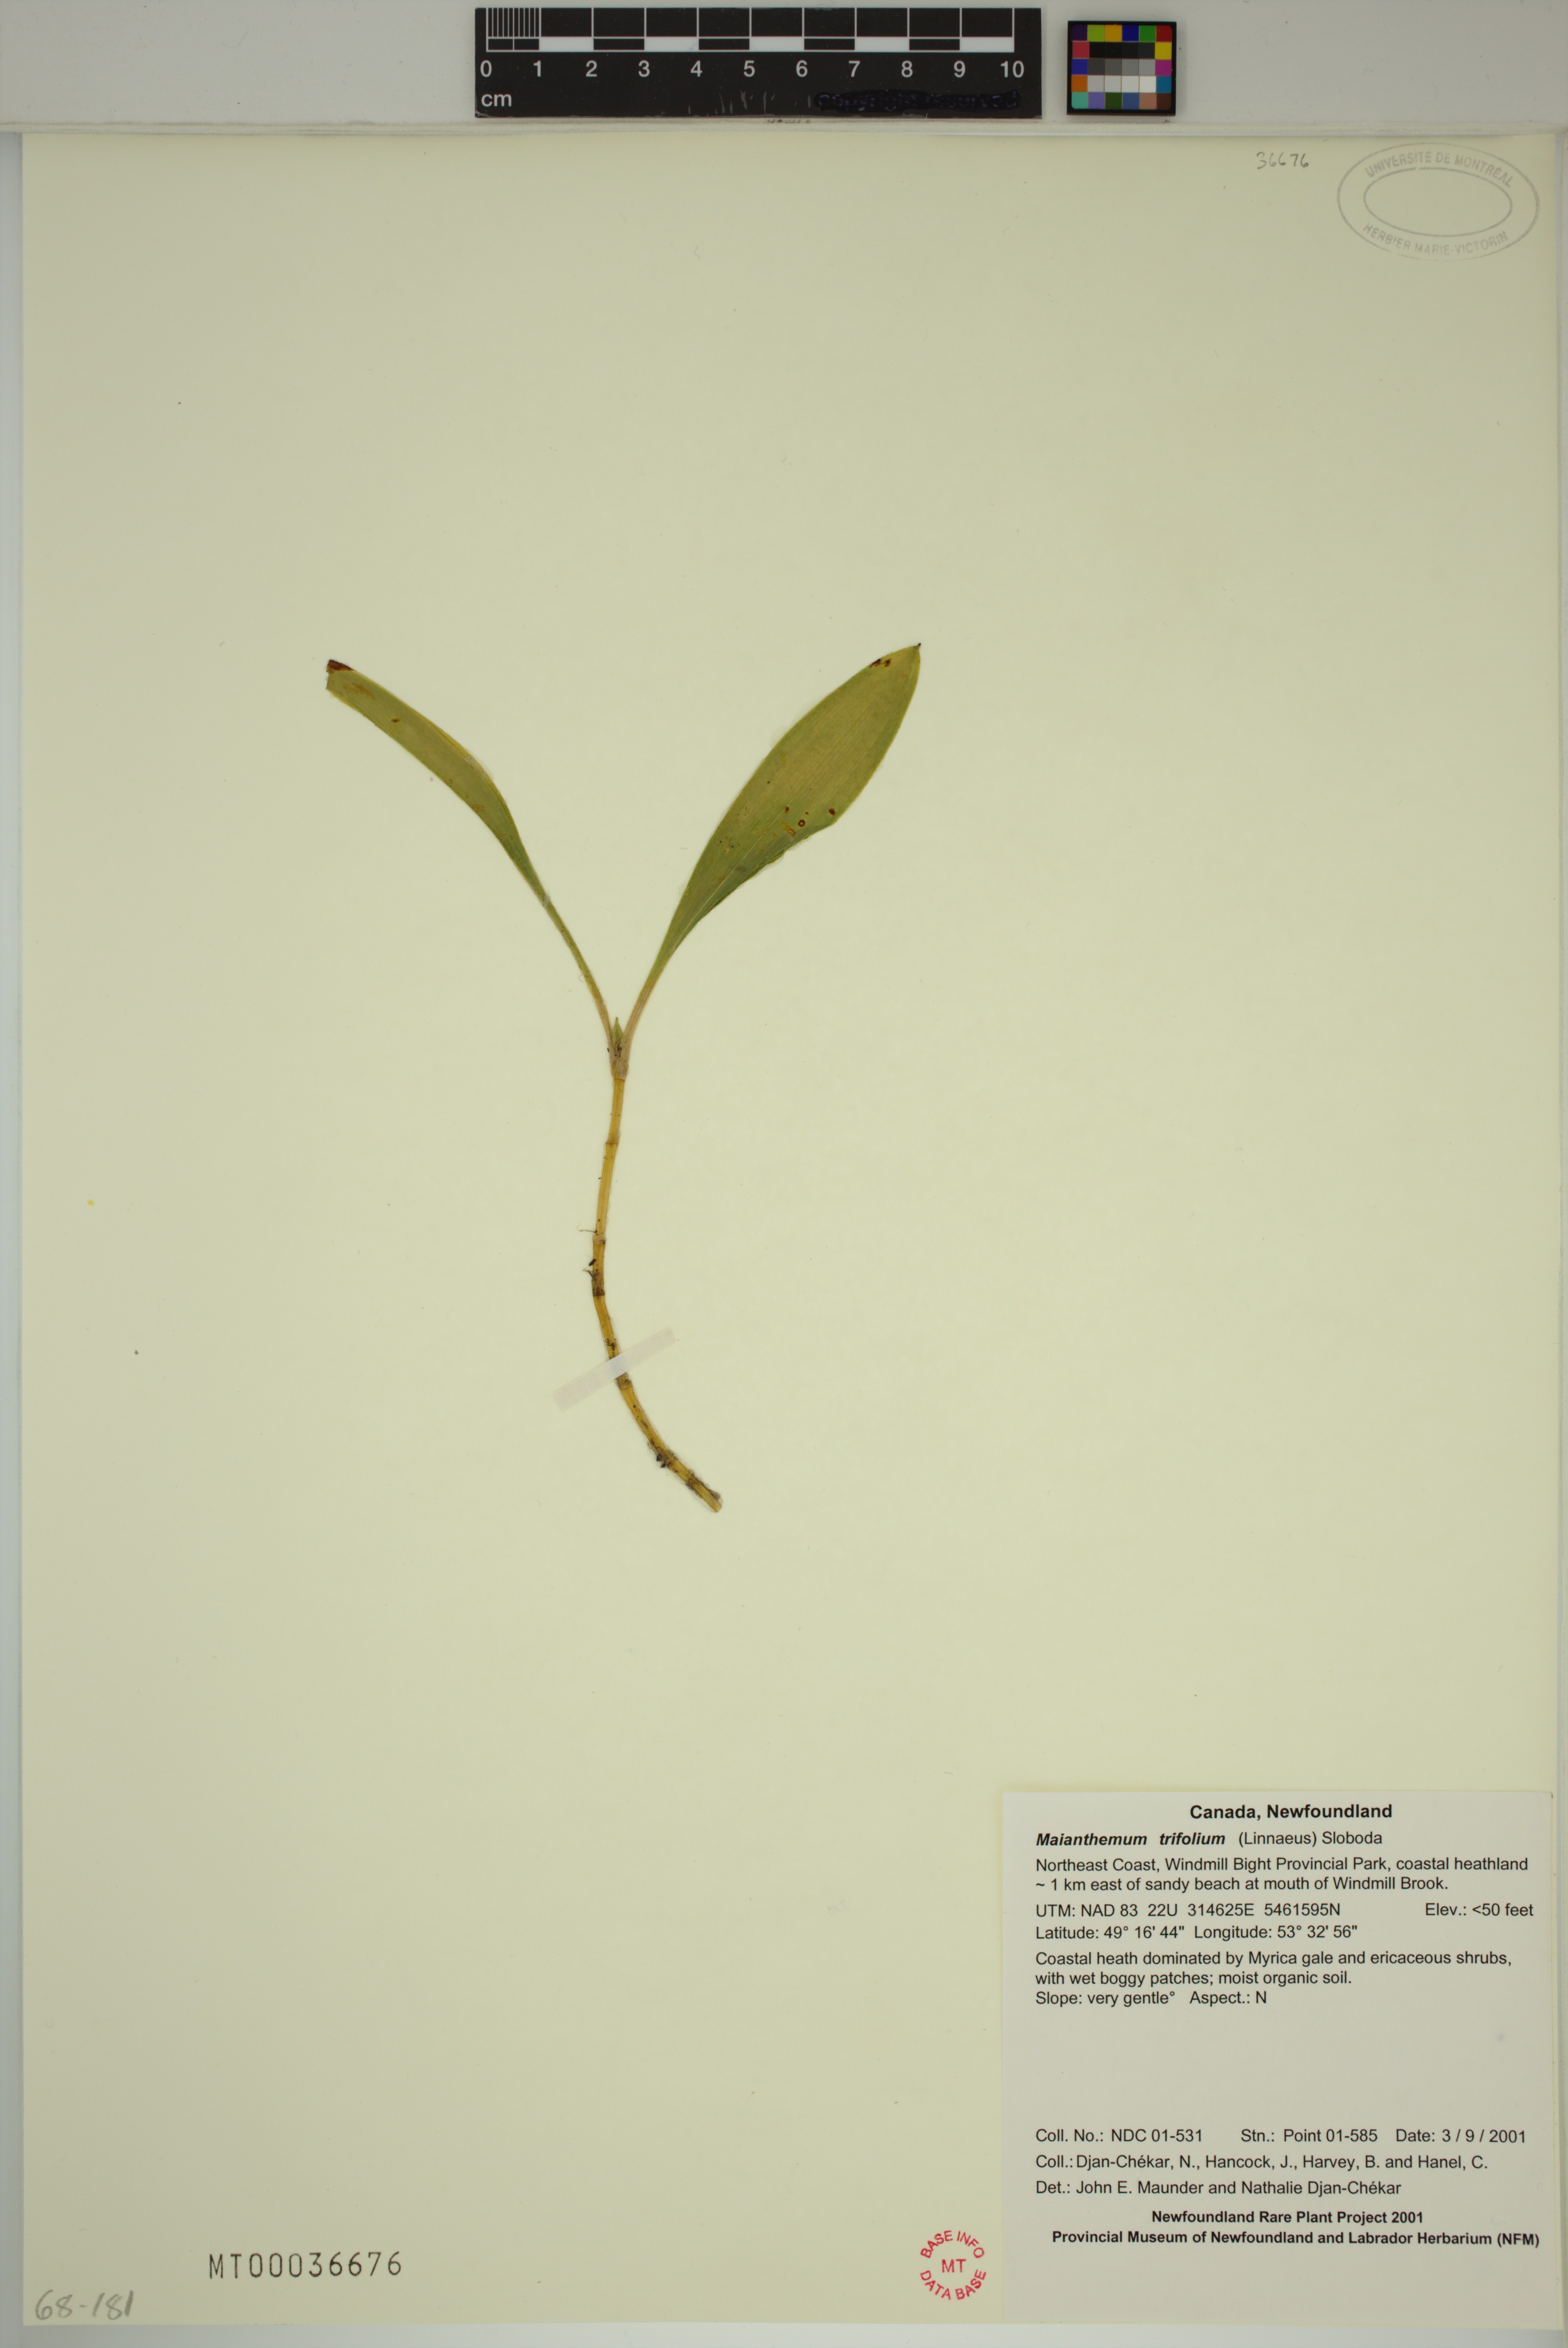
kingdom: Plantae
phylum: Tracheophyta
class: Liliopsida
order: Asparagales
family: Asparagaceae
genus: Maianthemum
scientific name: Maianthemum trifolium
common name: Swamp false solomon's seal
